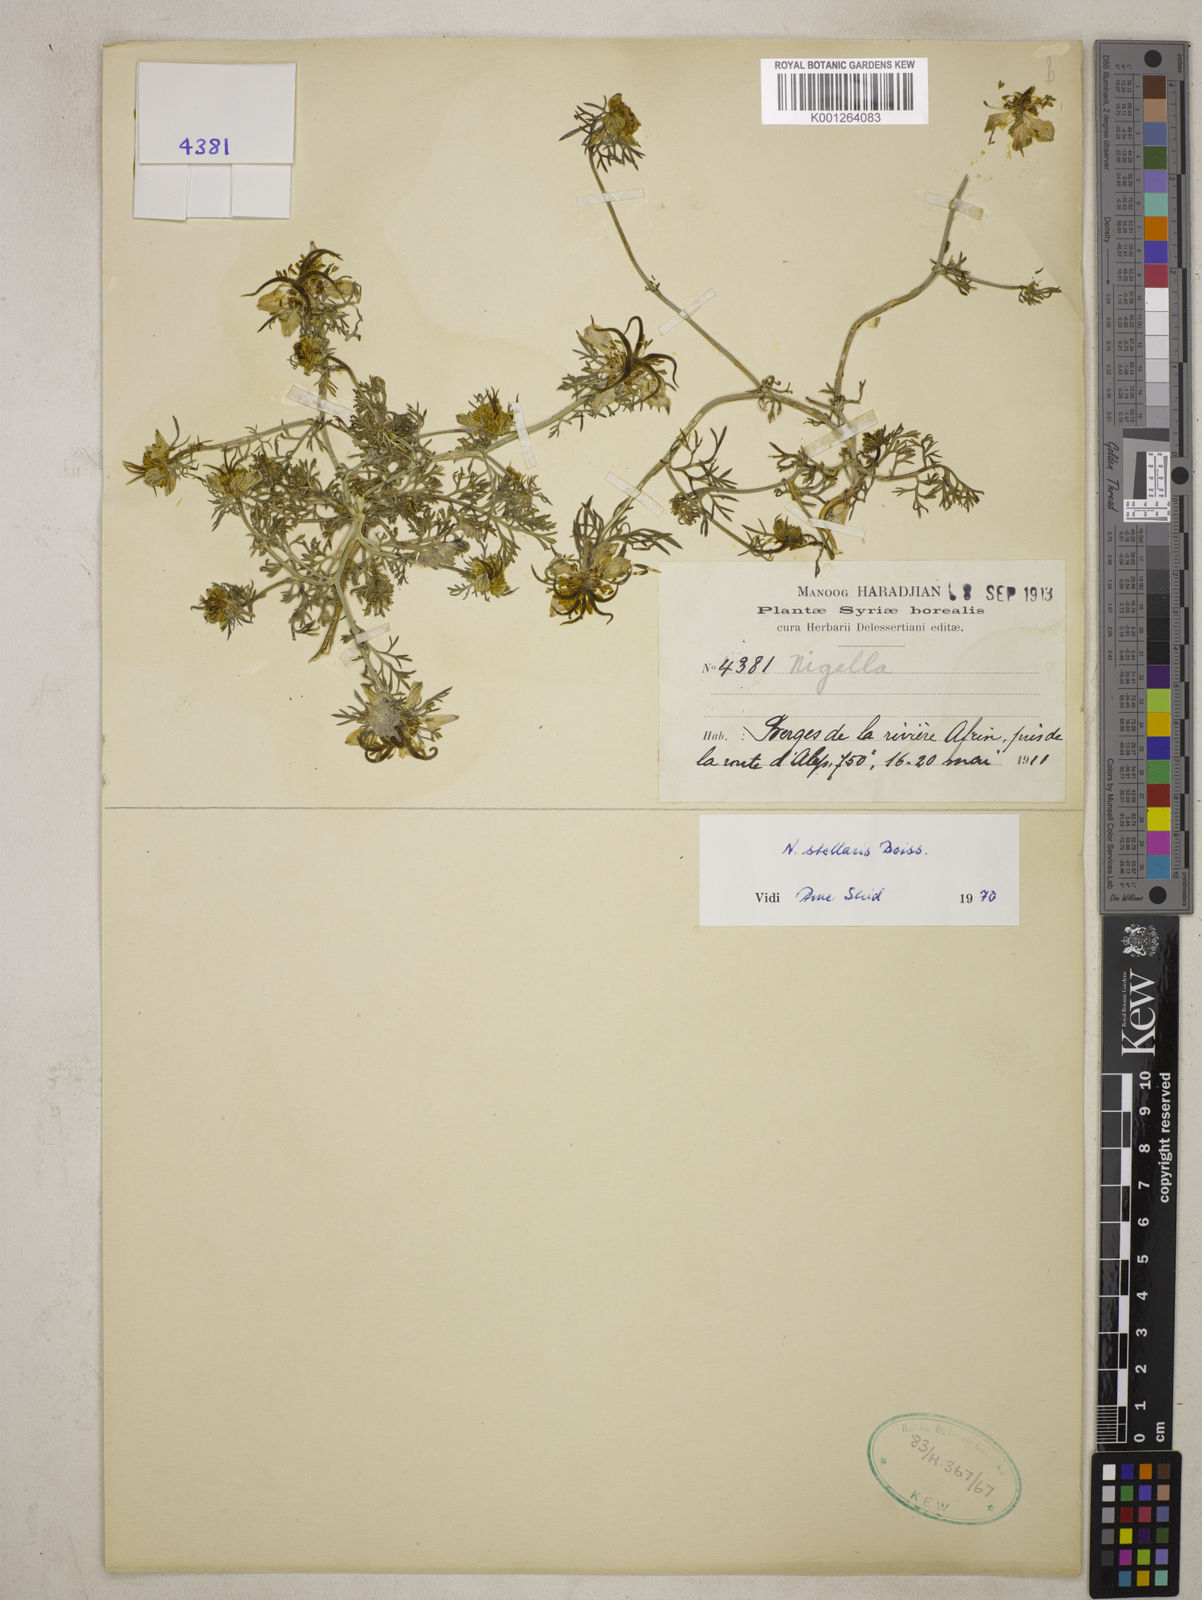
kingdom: Plantae
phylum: Tracheophyta
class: Magnoliopsida
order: Ranunculales
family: Ranunculaceae
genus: Nigella
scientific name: Nigella stellaris
